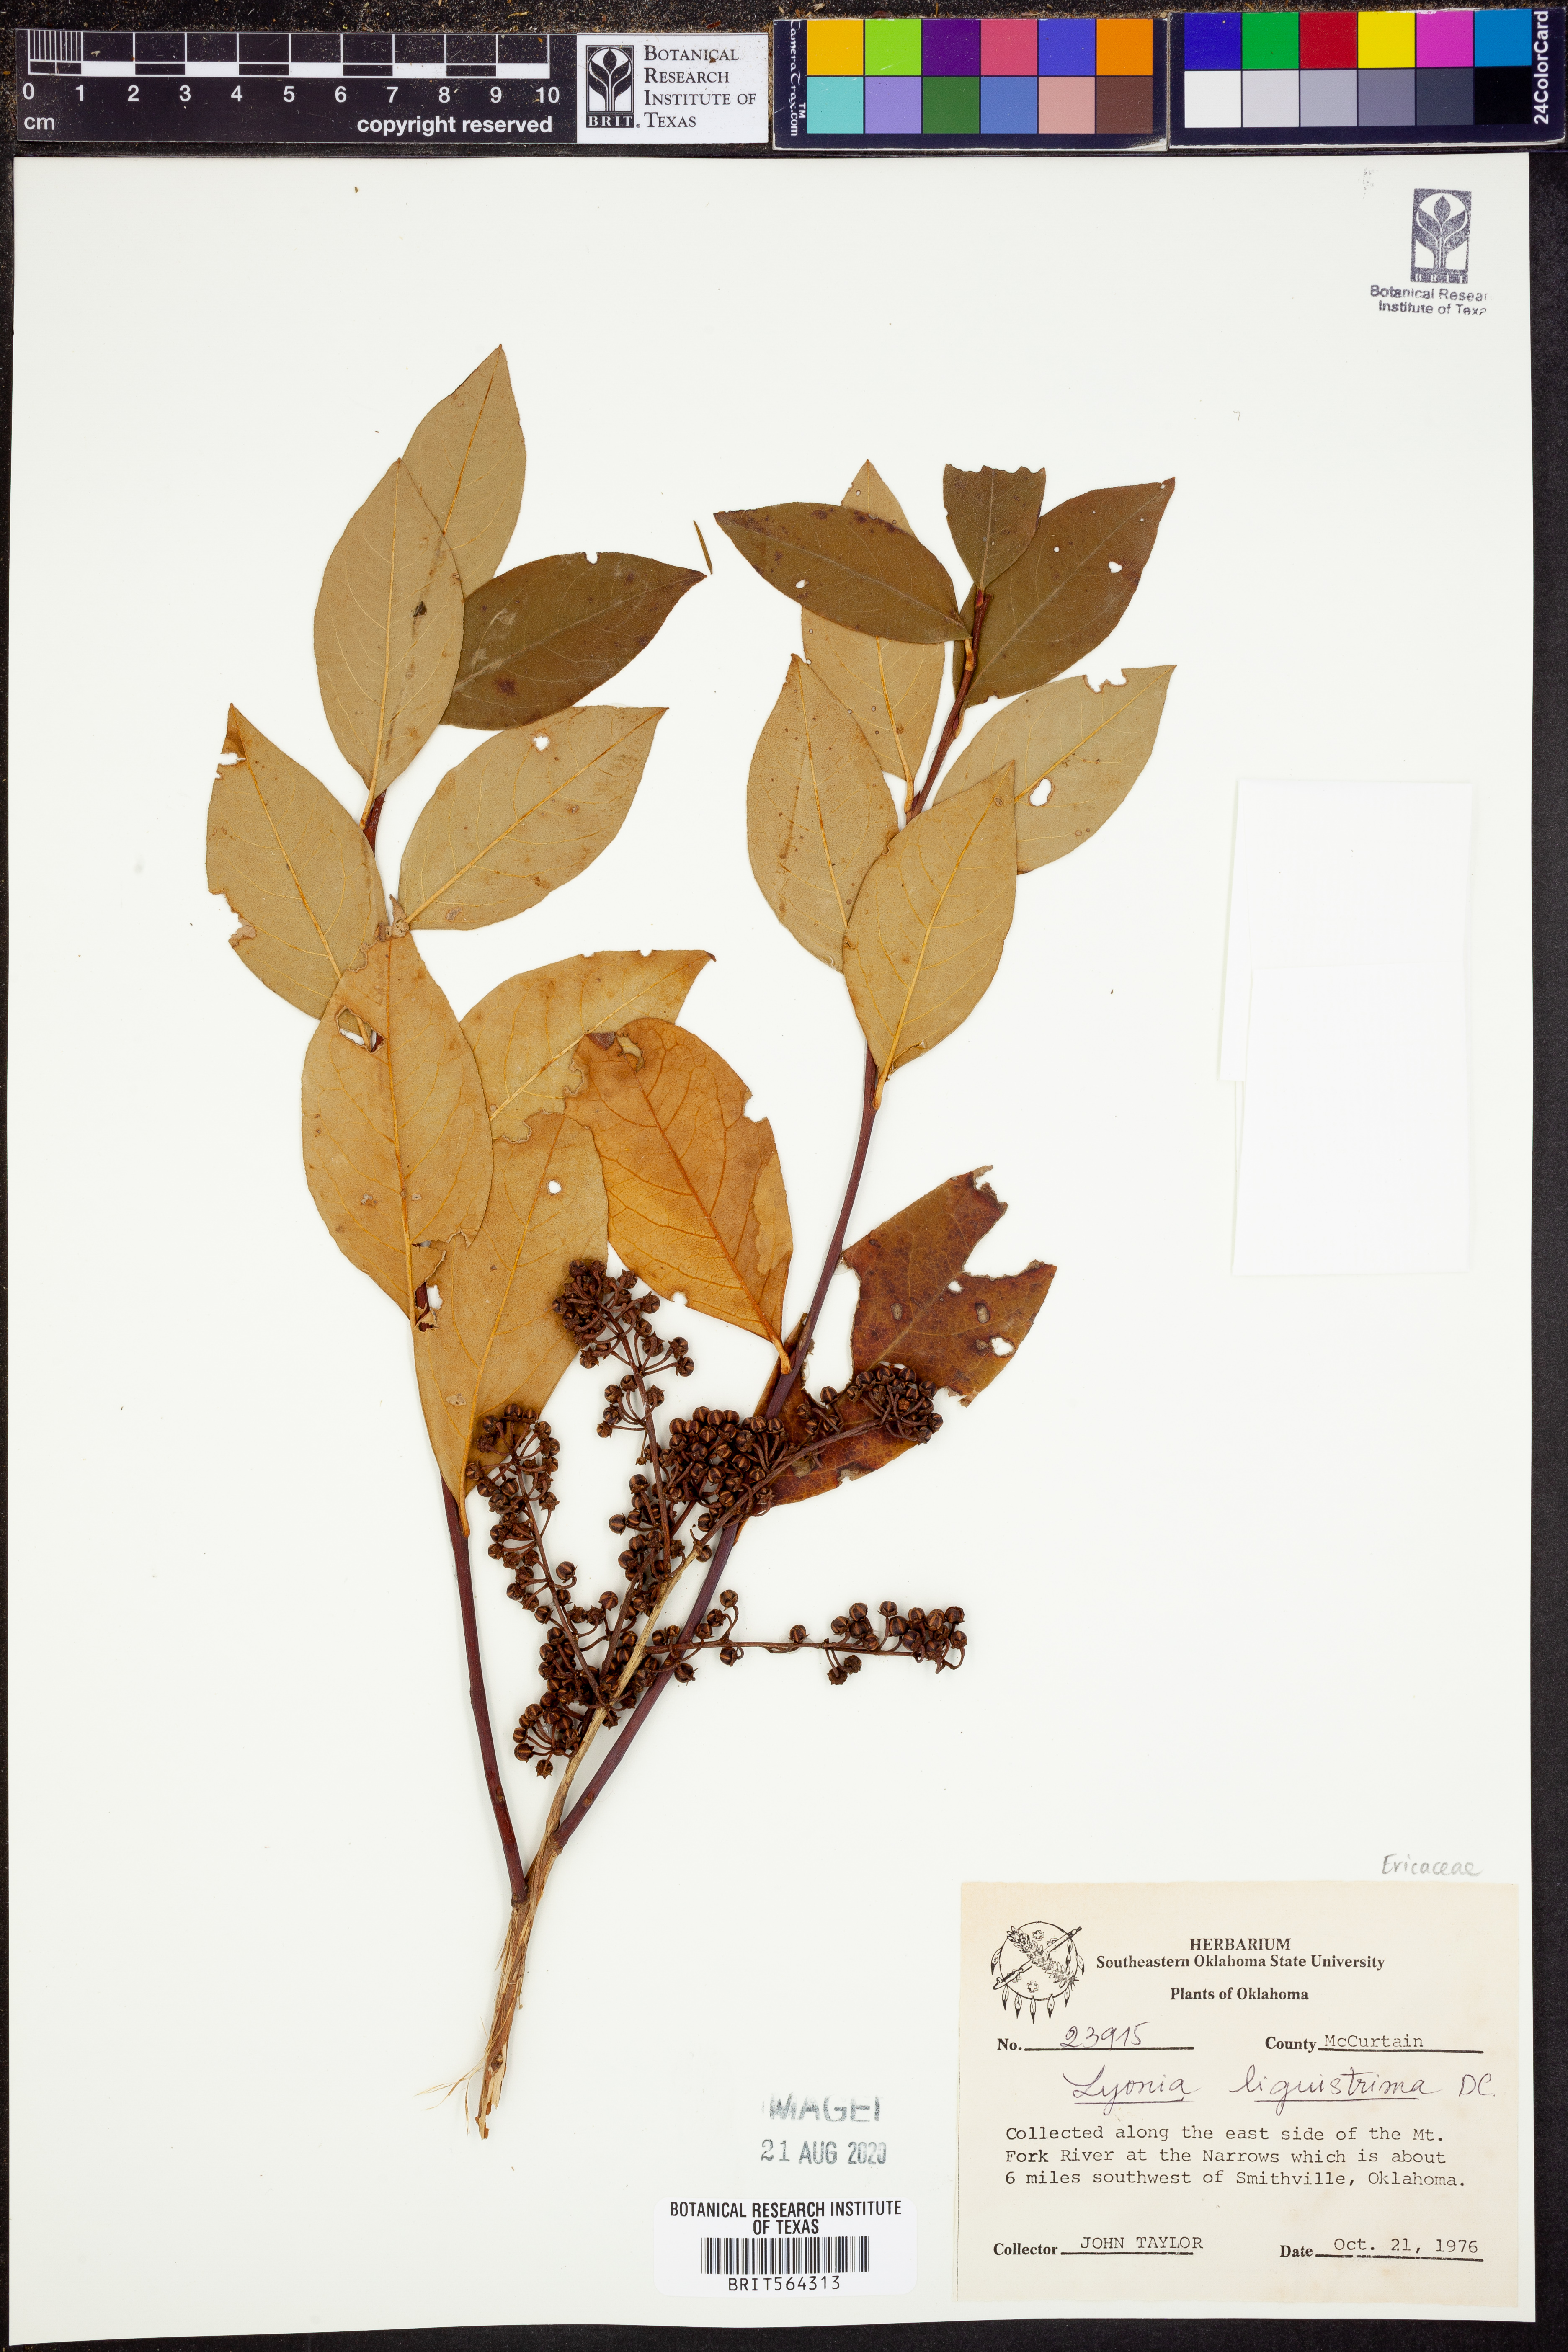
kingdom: Plantae
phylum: Tracheophyta
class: Magnoliopsida
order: Ericales
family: Ericaceae
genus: Lyonia
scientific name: Lyonia ligustrina
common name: Maleberry
